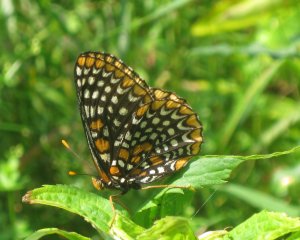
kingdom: Animalia
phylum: Arthropoda
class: Insecta
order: Lepidoptera
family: Nymphalidae
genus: Euphydryas
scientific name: Euphydryas phaeton
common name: Baltimore Checkerspot
